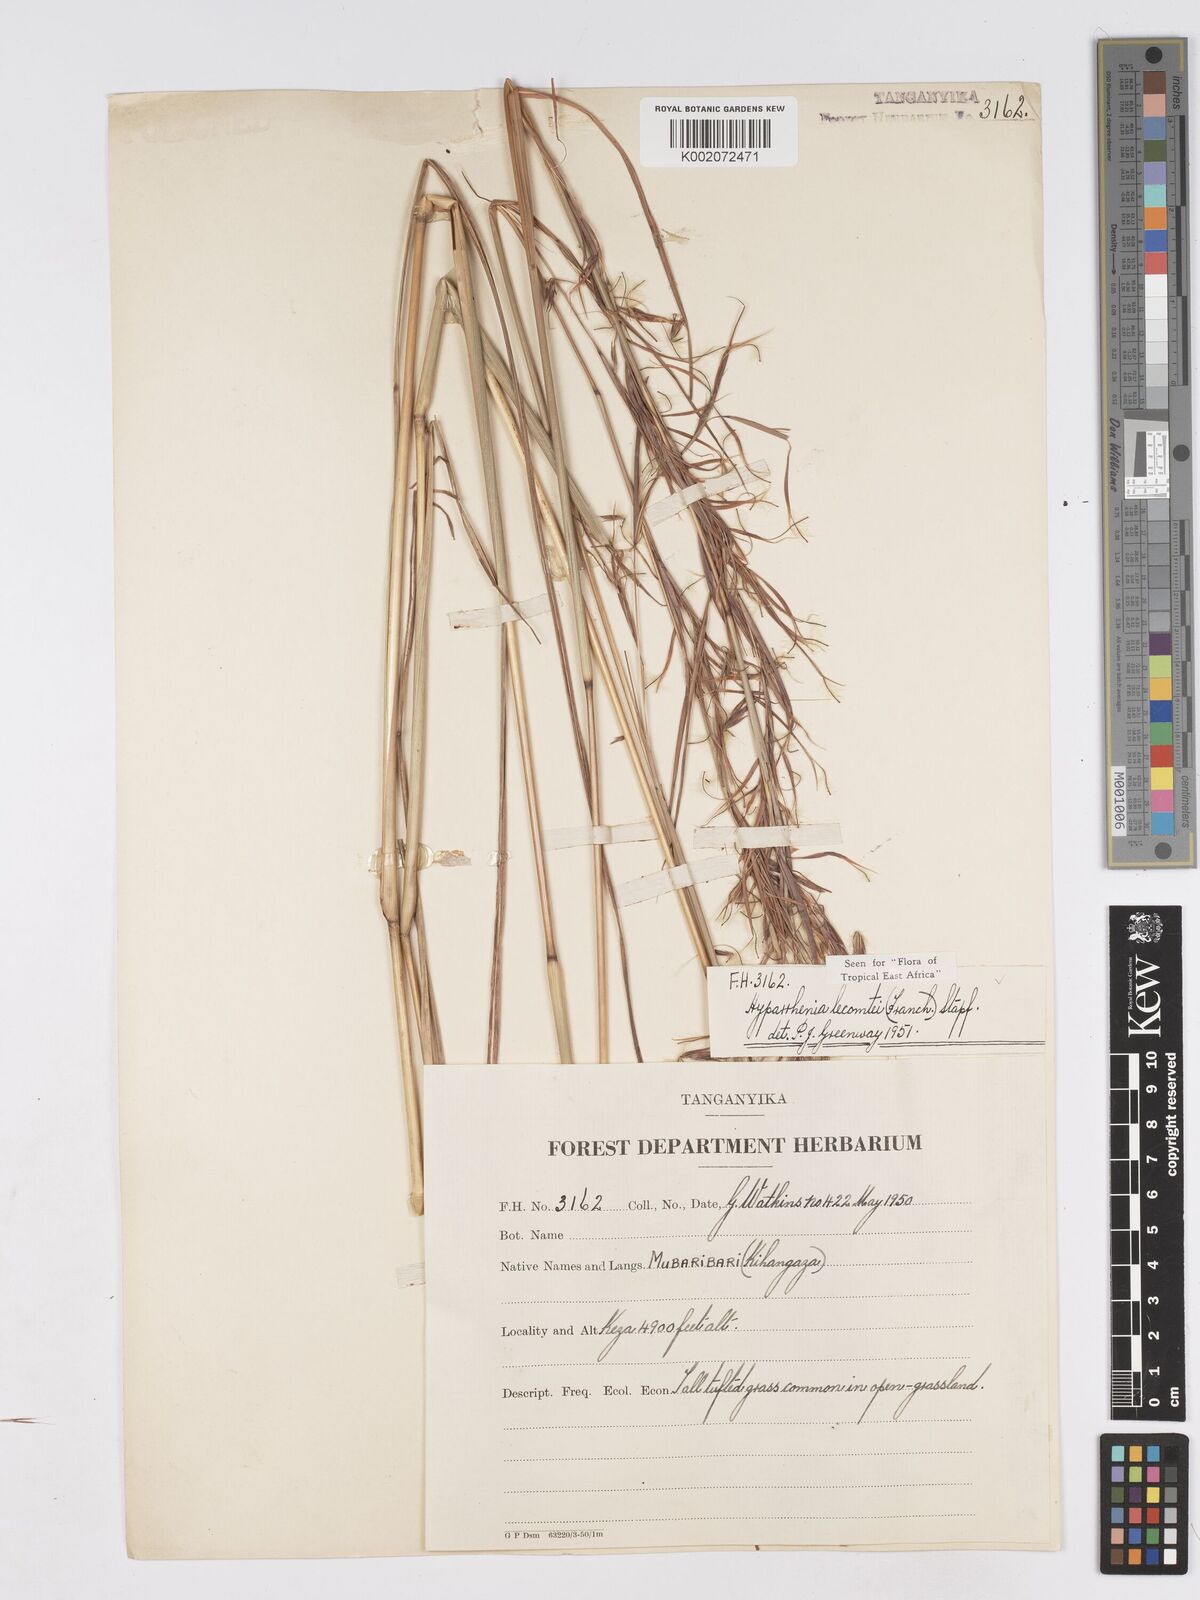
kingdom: Plantae
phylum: Tracheophyta
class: Liliopsida
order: Poales
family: Poaceae
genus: Hyparrhenia
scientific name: Hyparrhenia newtonii
